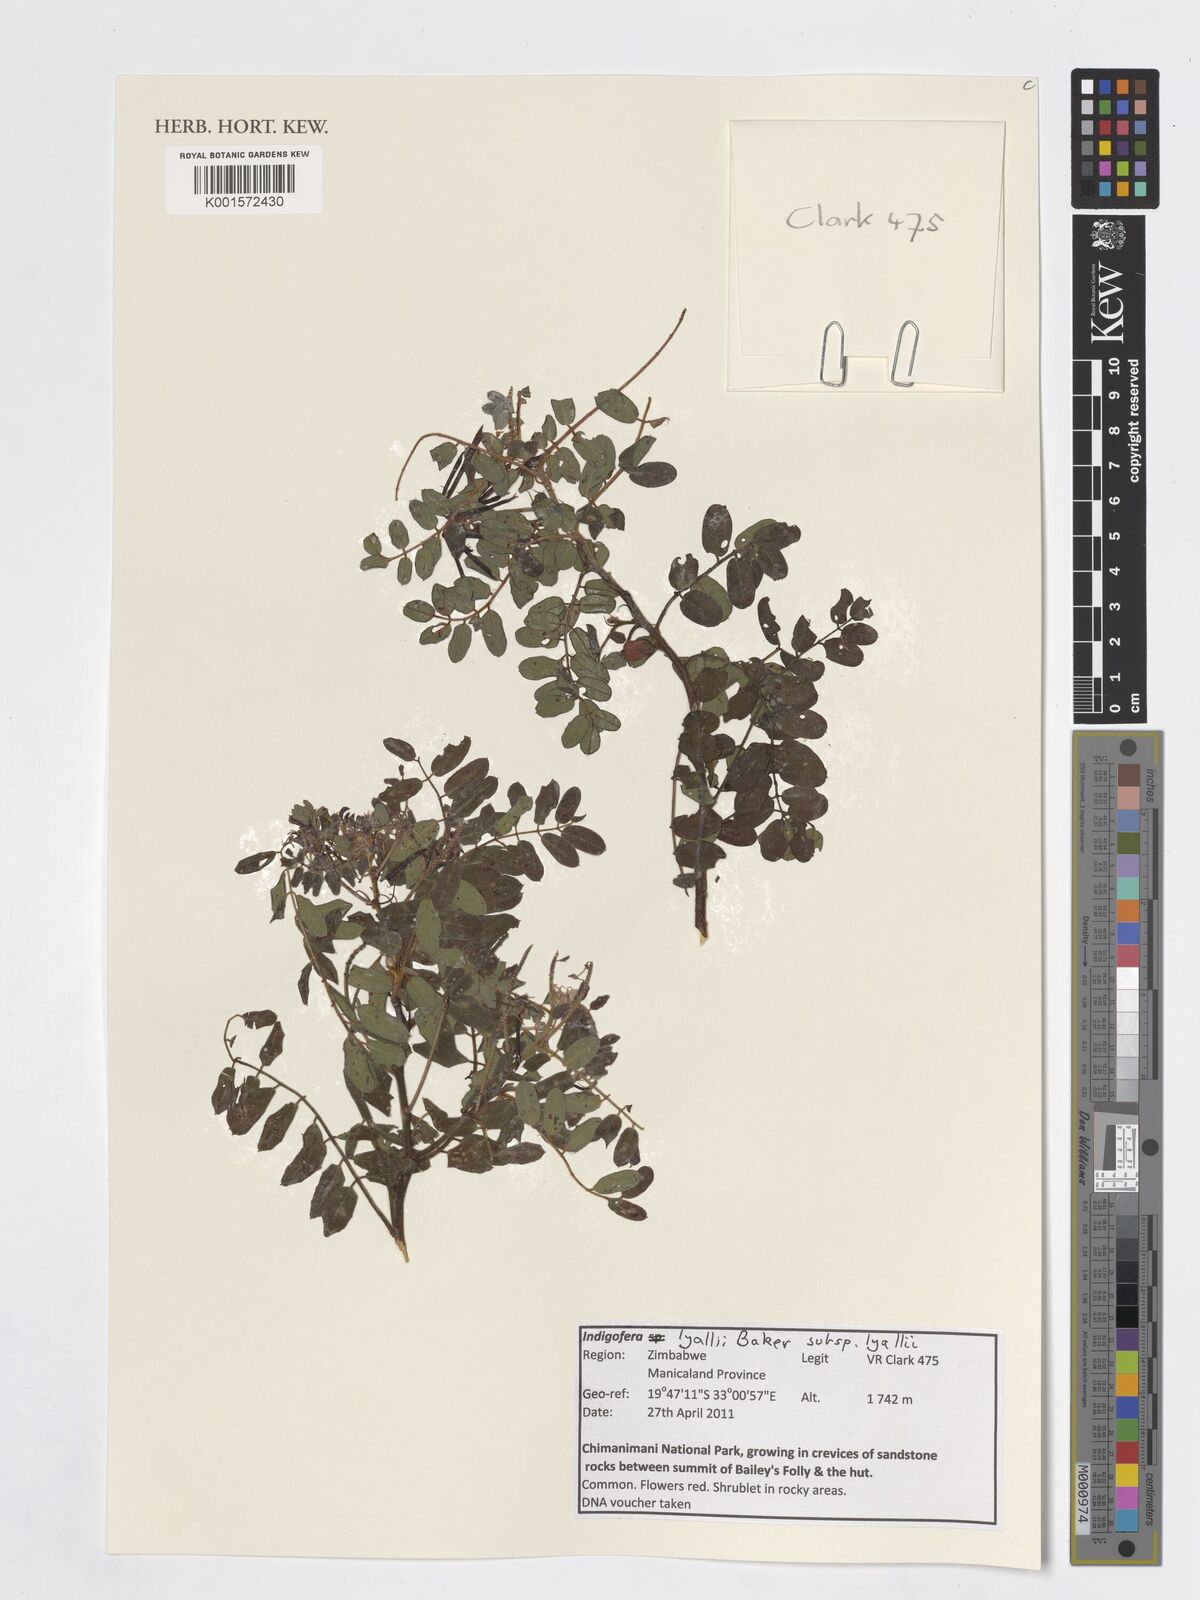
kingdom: Plantae
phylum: Tracheophyta
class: Magnoliopsida
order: Fabales
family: Fabaceae
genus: Indigofera
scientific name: Indigofera lyallii
